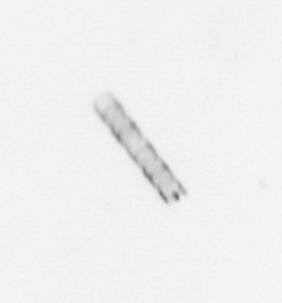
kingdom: Chromista
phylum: Ochrophyta
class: Bacillariophyceae
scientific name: Bacillariophyceae
